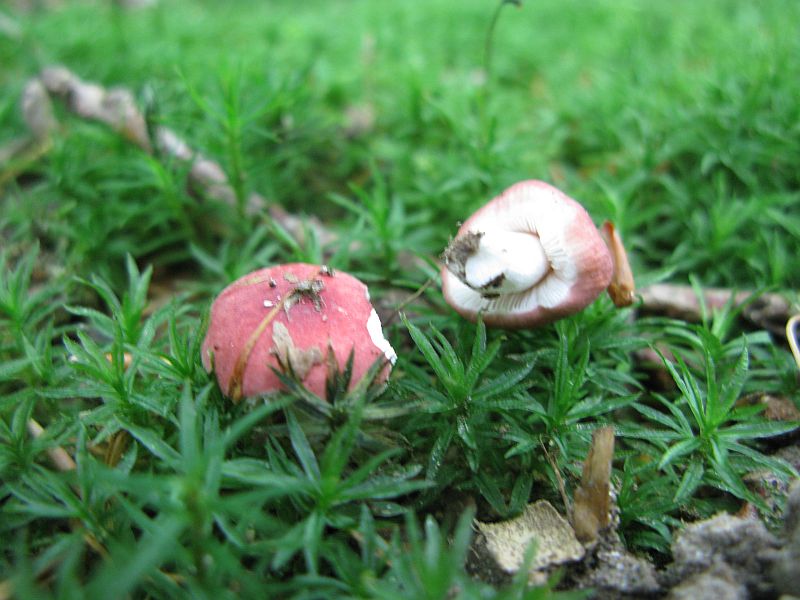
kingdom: Fungi
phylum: Basidiomycota
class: Agaricomycetes
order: Russulales
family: Russulaceae
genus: Russula
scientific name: Russula nobilis
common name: lille gift-skørhat
